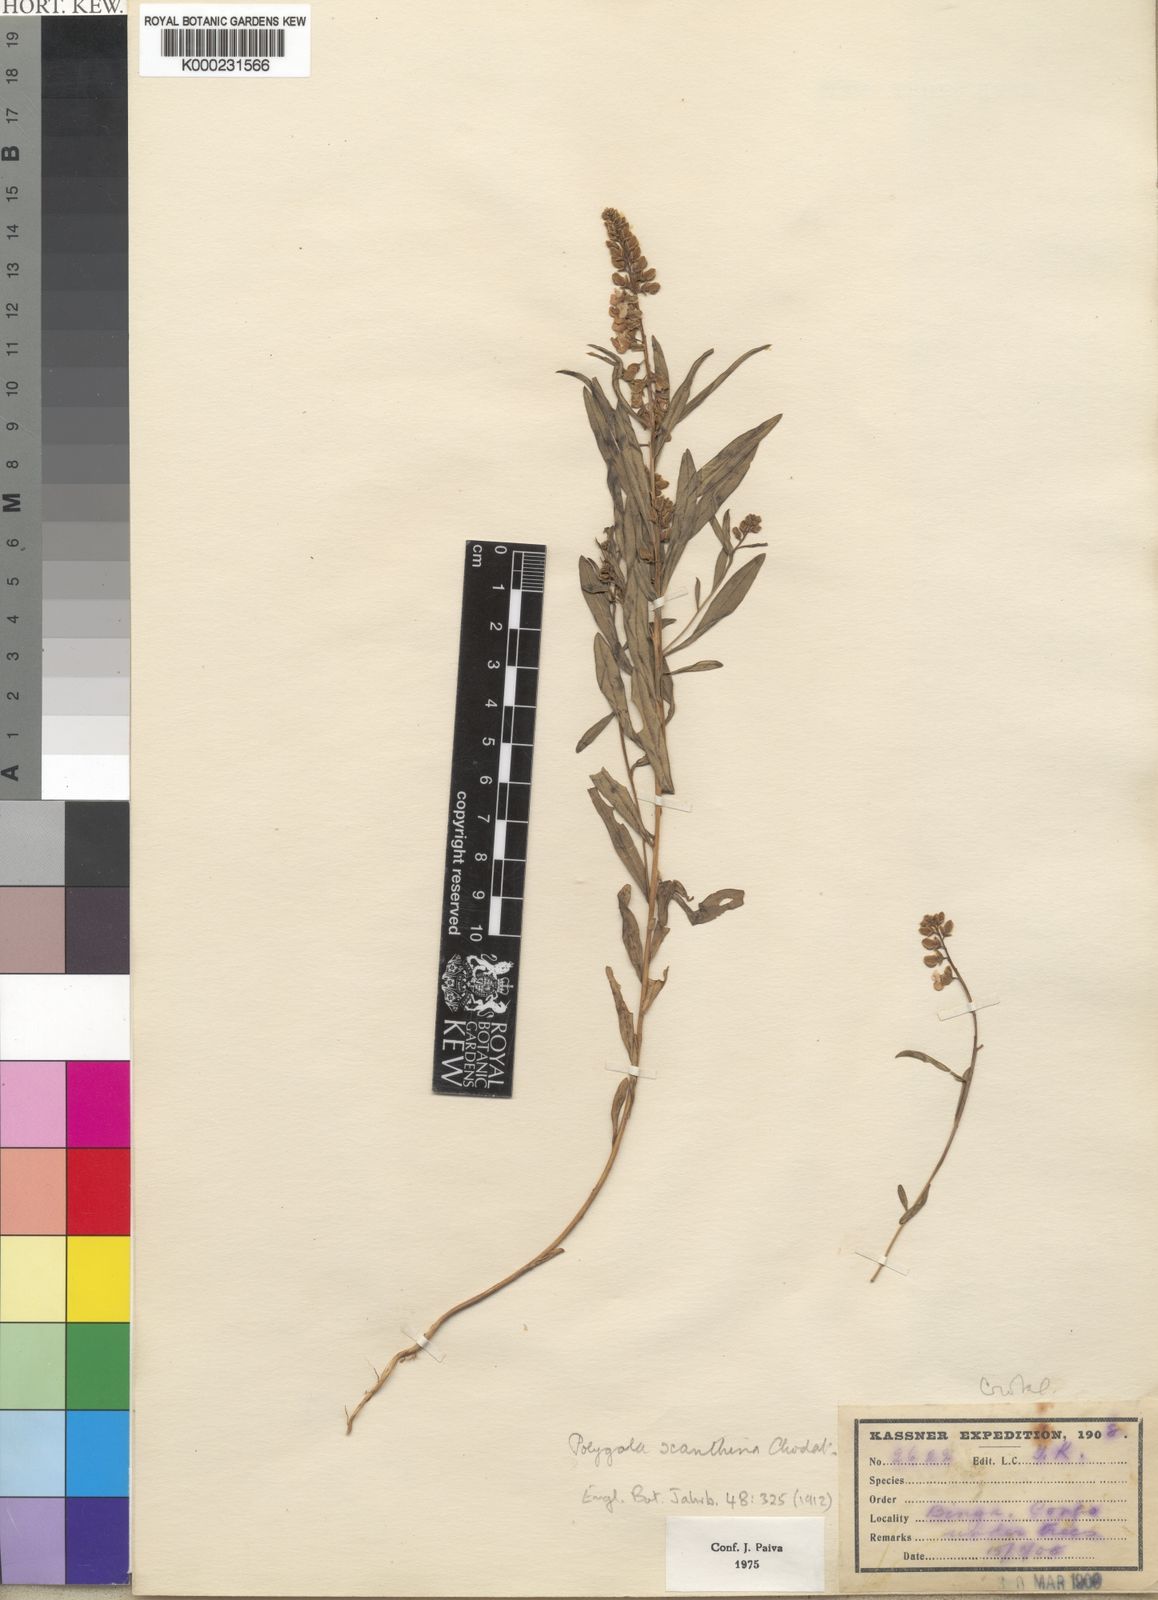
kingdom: Plantae
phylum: Tracheophyta
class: Magnoliopsida
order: Fabales
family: Polygalaceae
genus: Polygala
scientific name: Polygala xanthina
